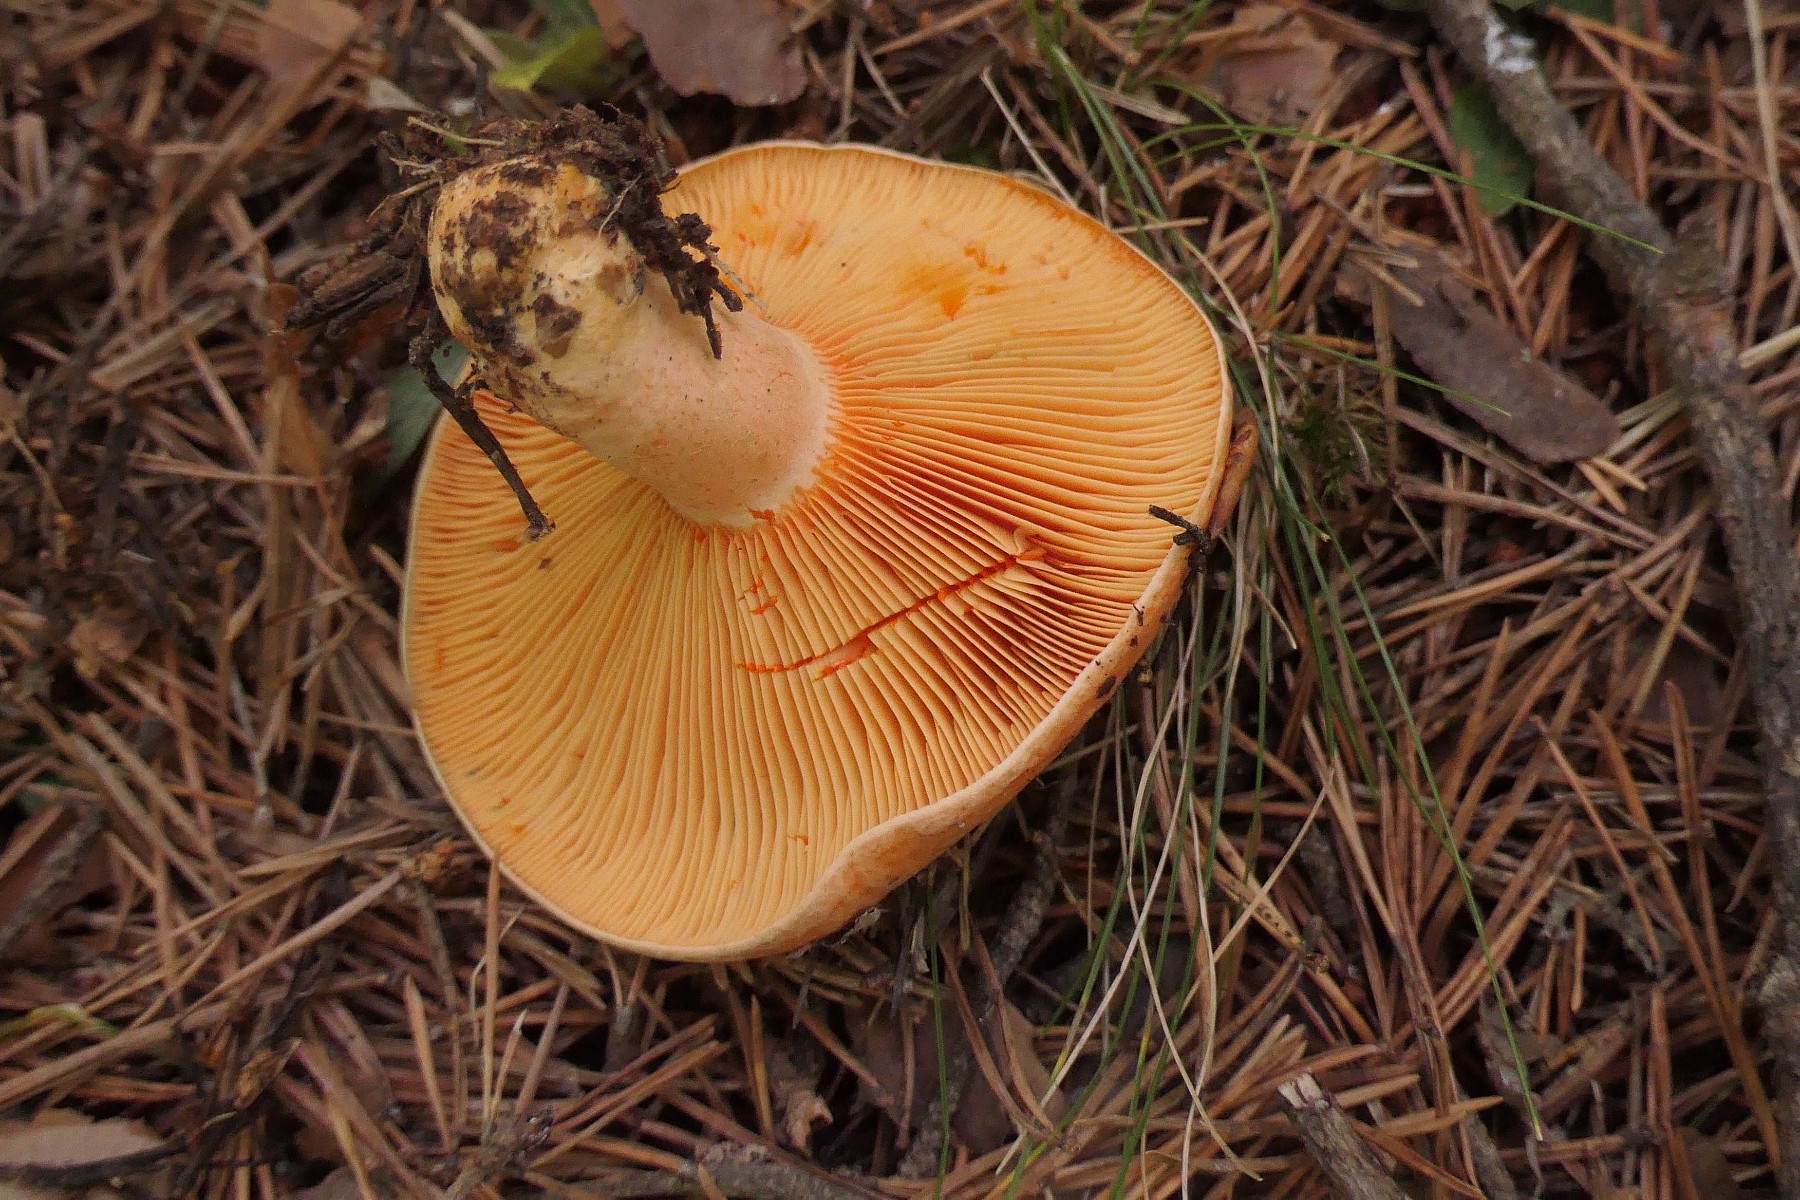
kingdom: Fungi
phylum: Basidiomycota
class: Agaricomycetes
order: Russulales
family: Russulaceae
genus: Lactarius
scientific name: Lactarius deliciosus
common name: velsmagende mælkehat
